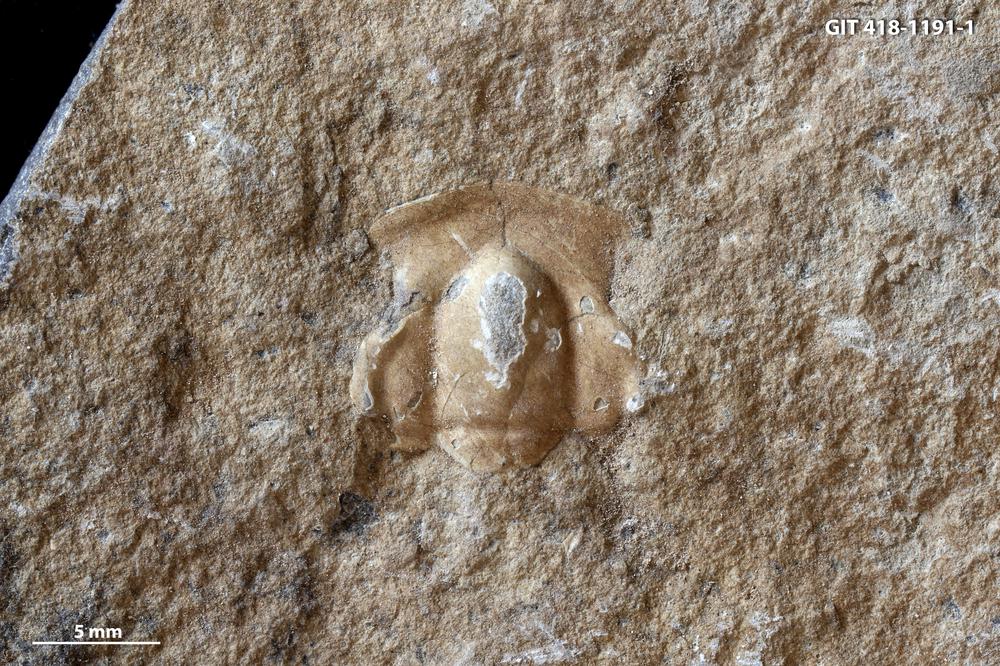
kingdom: Animalia
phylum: Arthropoda
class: Trilobita
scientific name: Trilobita
